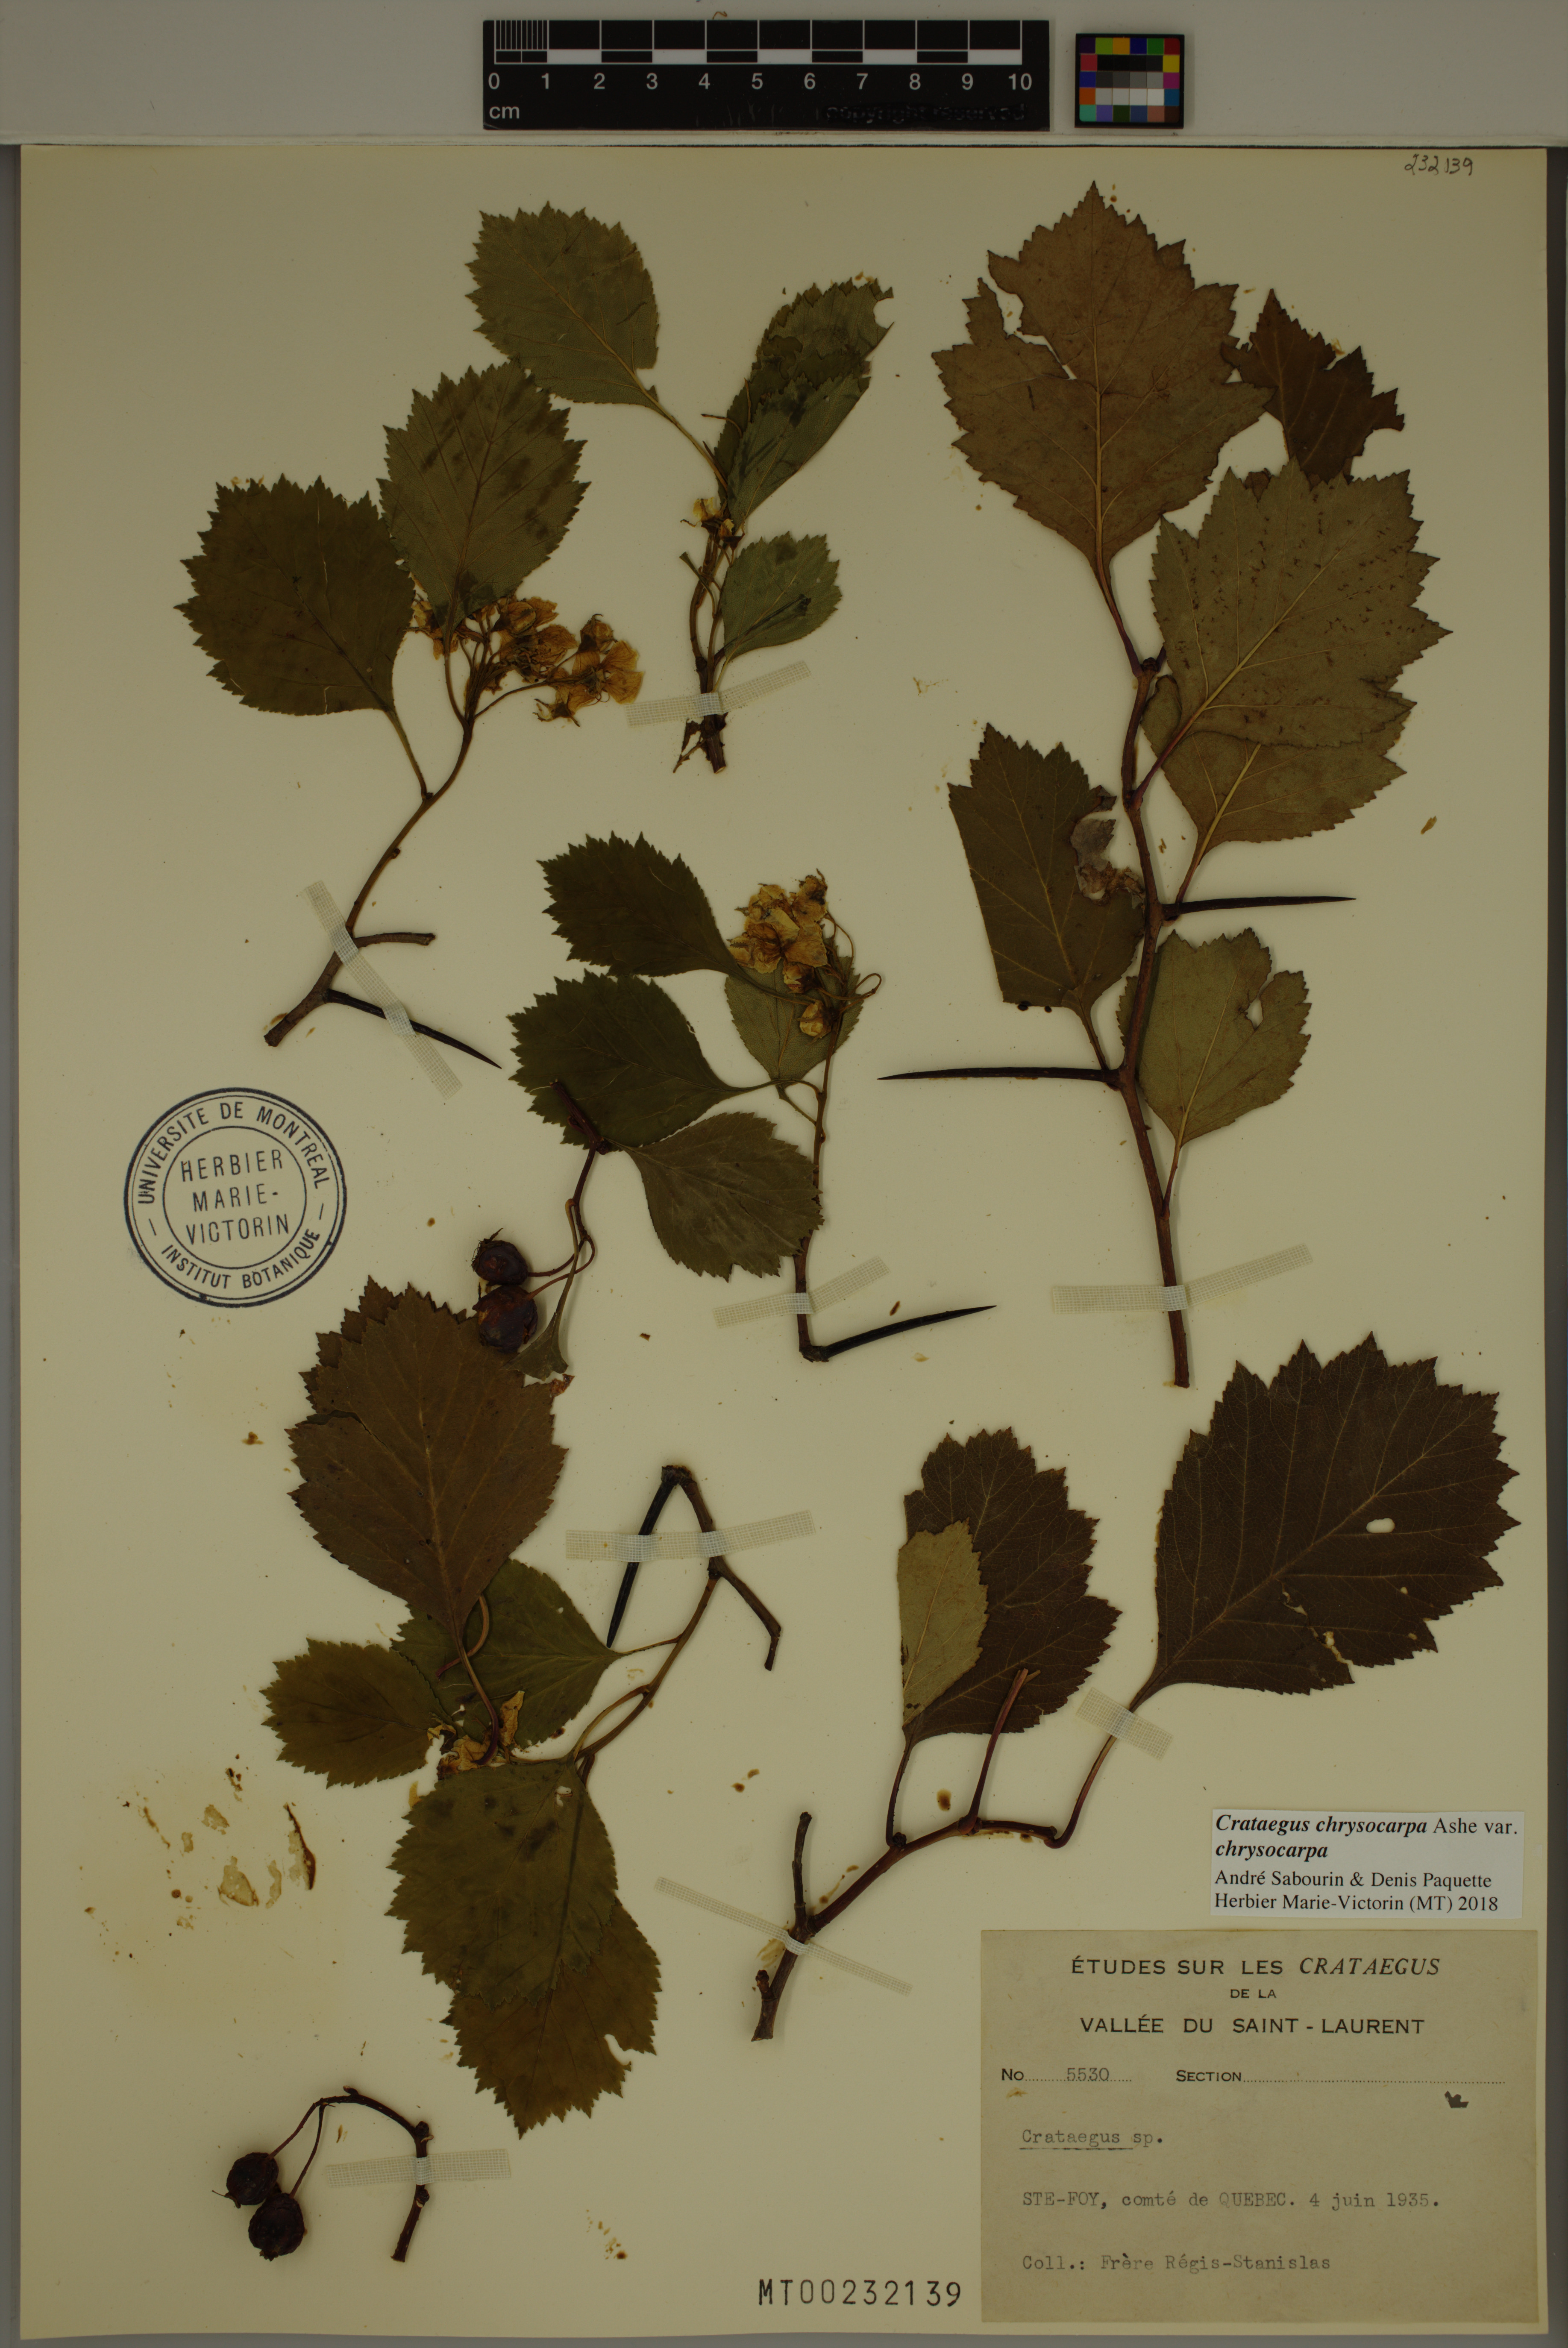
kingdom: Plantae
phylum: Tracheophyta
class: Magnoliopsida
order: Rosales
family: Rosaceae
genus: Crataegus
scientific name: Crataegus chrysocarpa
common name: Fire-berry hawthorn
